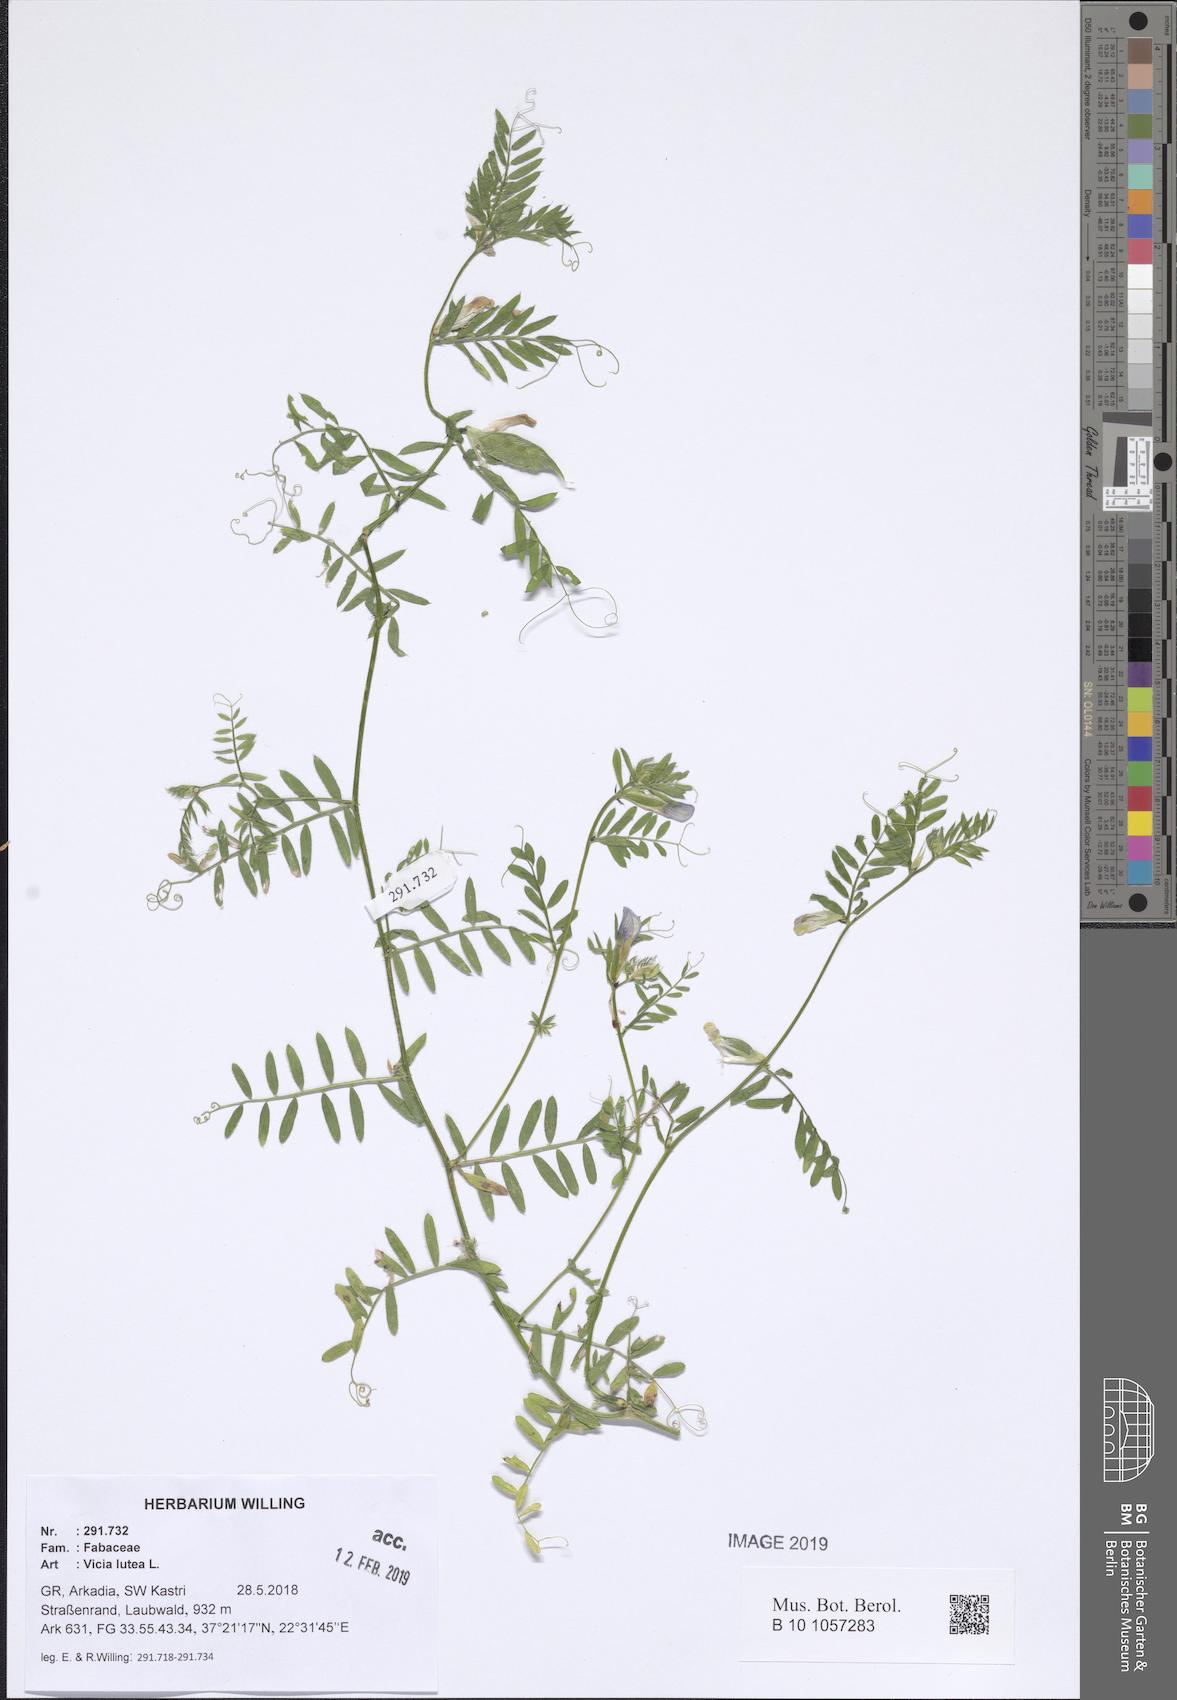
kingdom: Plantae
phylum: Tracheophyta
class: Magnoliopsida
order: Fabales
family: Fabaceae
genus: Vicia
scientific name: Vicia lutea
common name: Smooth yellow vetch
